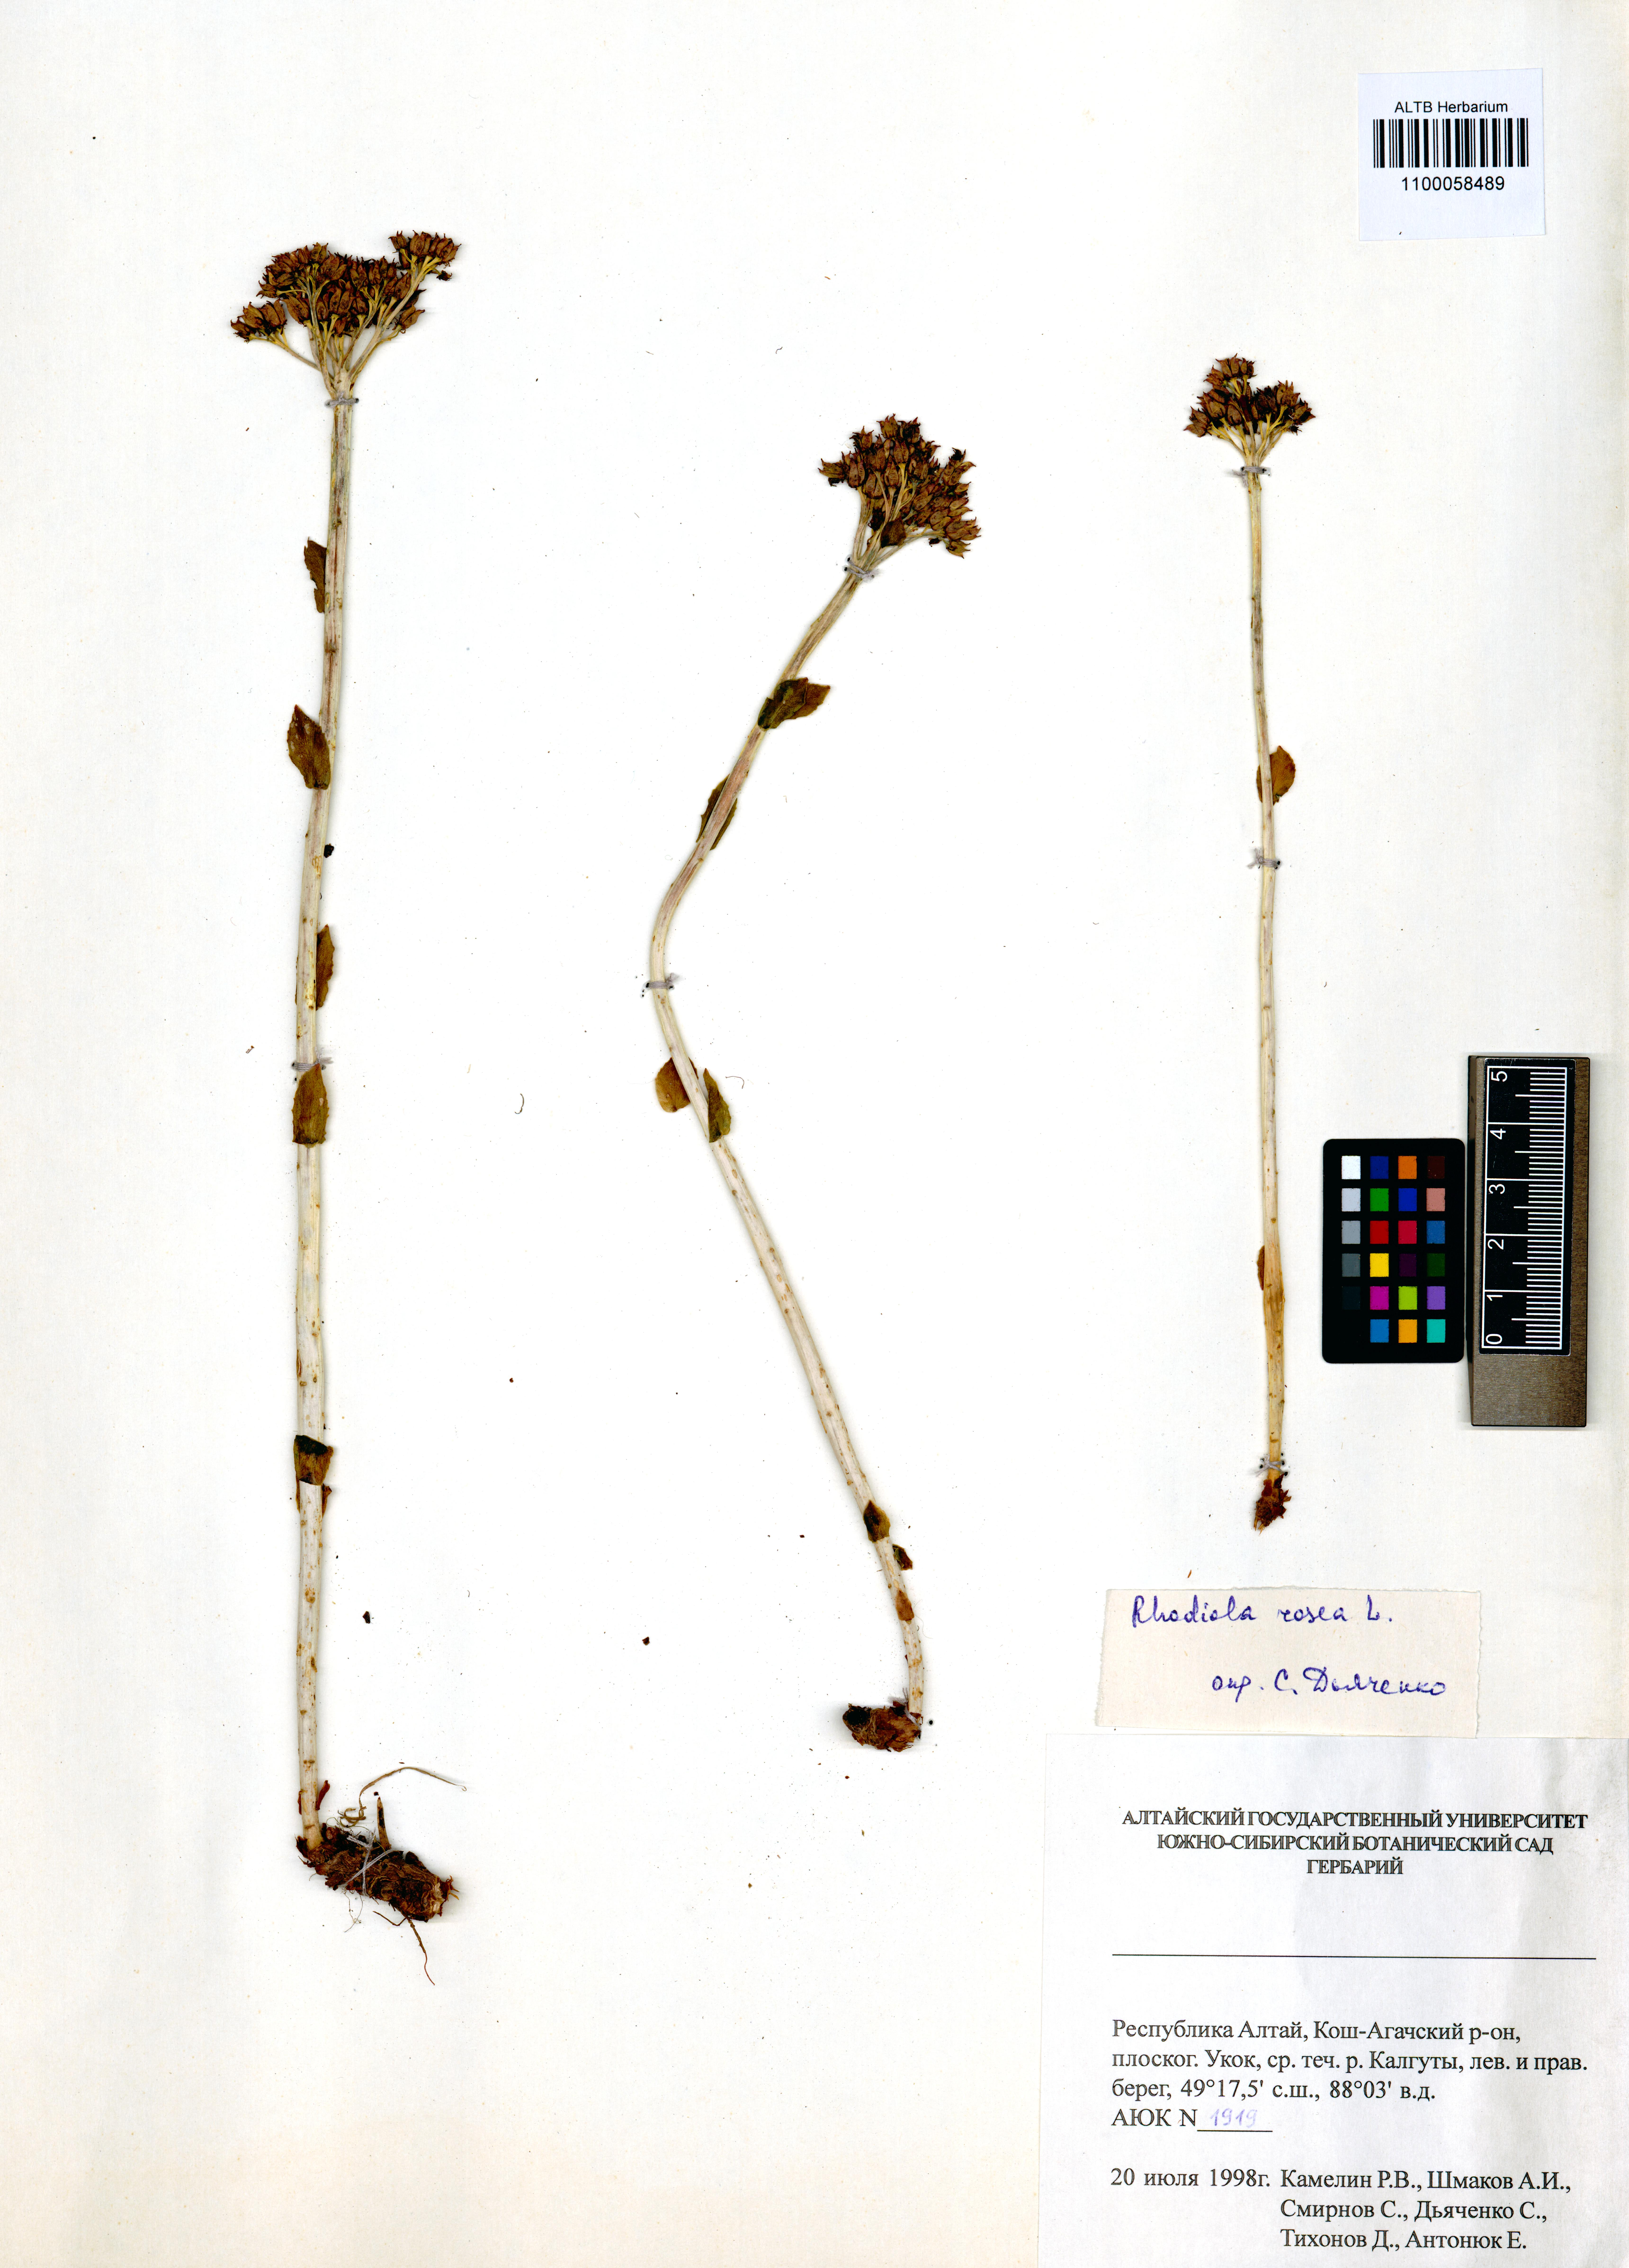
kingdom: Plantae
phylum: Tracheophyta
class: Magnoliopsida
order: Saxifragales
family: Crassulaceae
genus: Rhodiola
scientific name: Rhodiola rosea
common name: Roseroot
